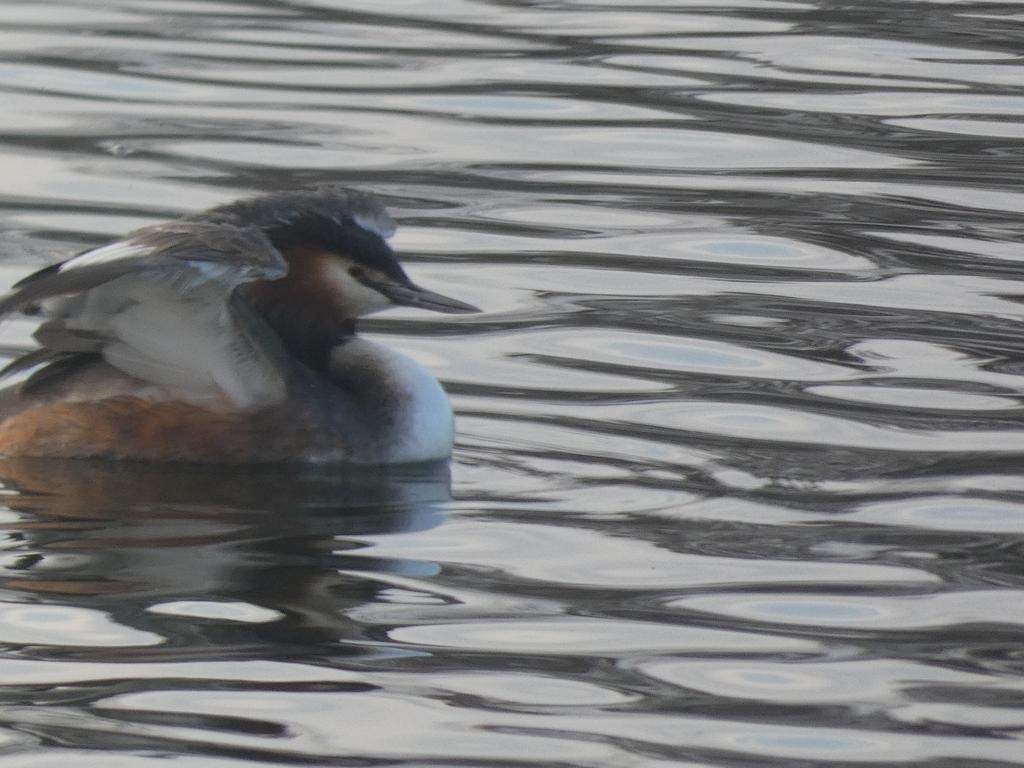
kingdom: Animalia
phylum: Chordata
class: Aves
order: Podicipediformes
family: Podicipedidae
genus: Podiceps
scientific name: Podiceps cristatus
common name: Toppet lappedykker
